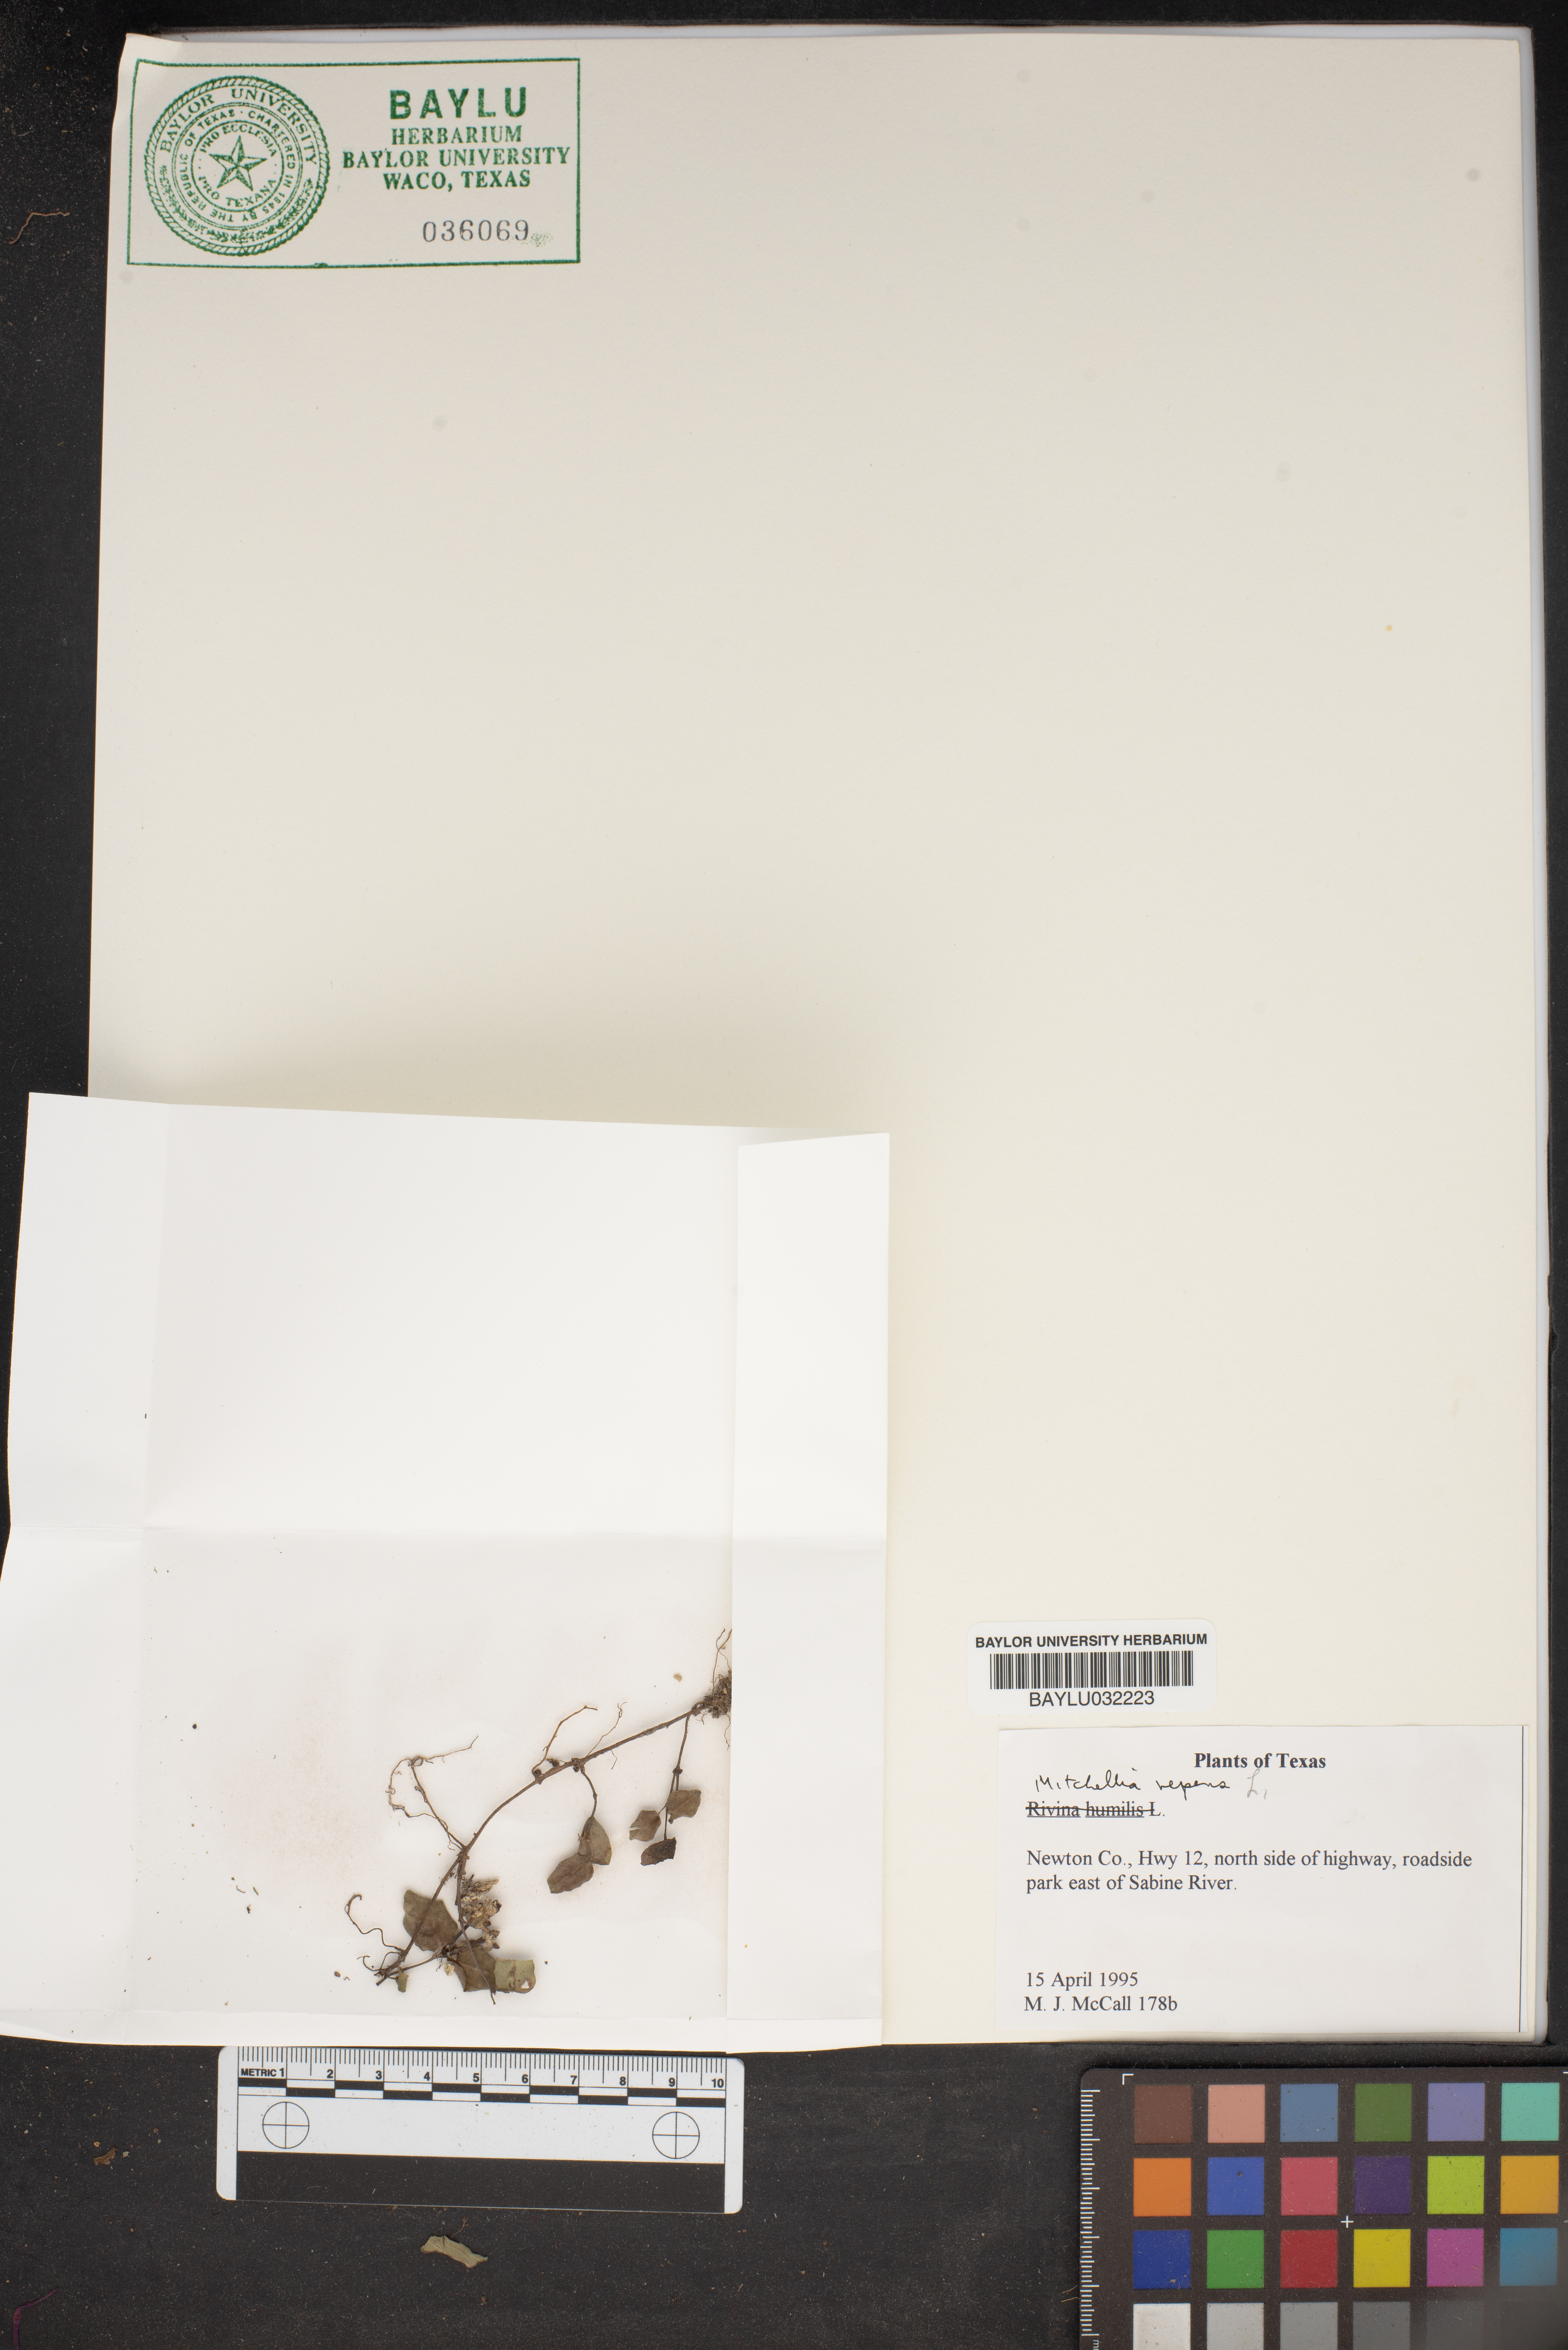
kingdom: Plantae
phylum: Tracheophyta
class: Magnoliopsida
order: Gentianales
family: Rubiaceae
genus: Mitchella
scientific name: Mitchella repens
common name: Partridge-berry
